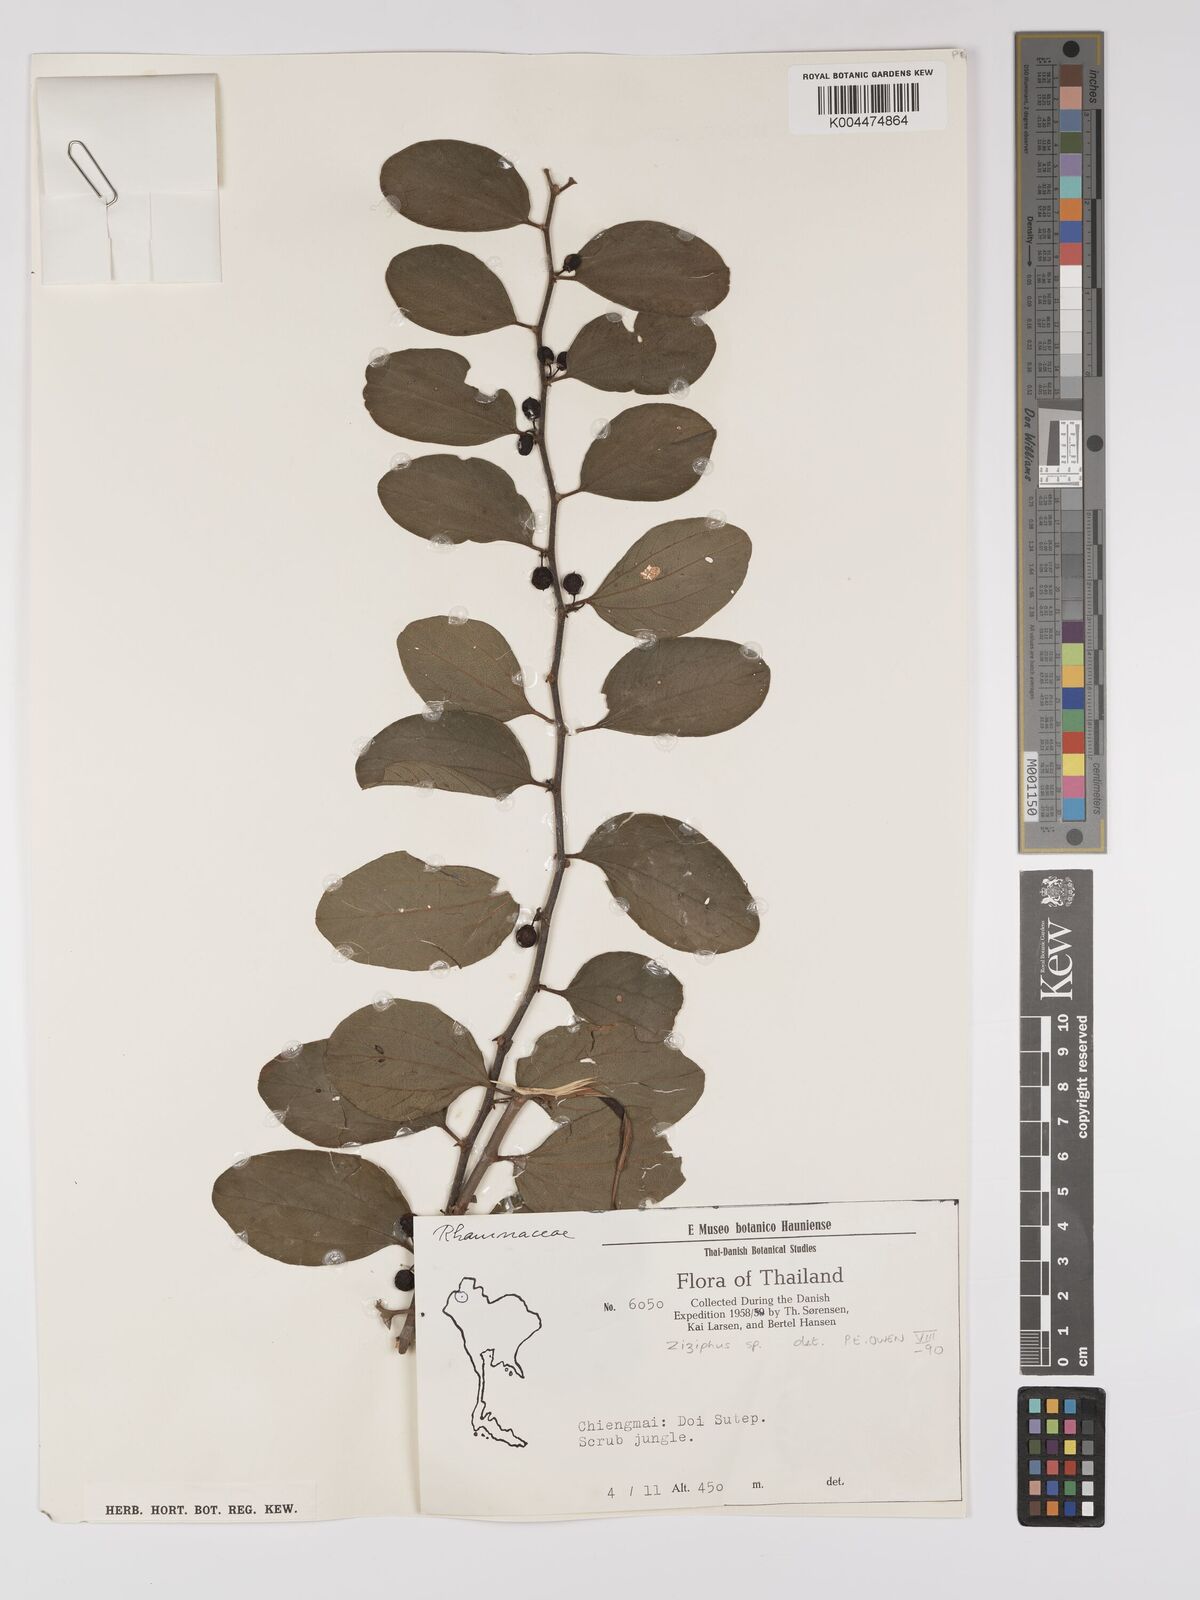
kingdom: Plantae
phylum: Tracheophyta
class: Magnoliopsida
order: Rosales
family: Rhamnaceae
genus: Ziziphus
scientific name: Ziziphus
